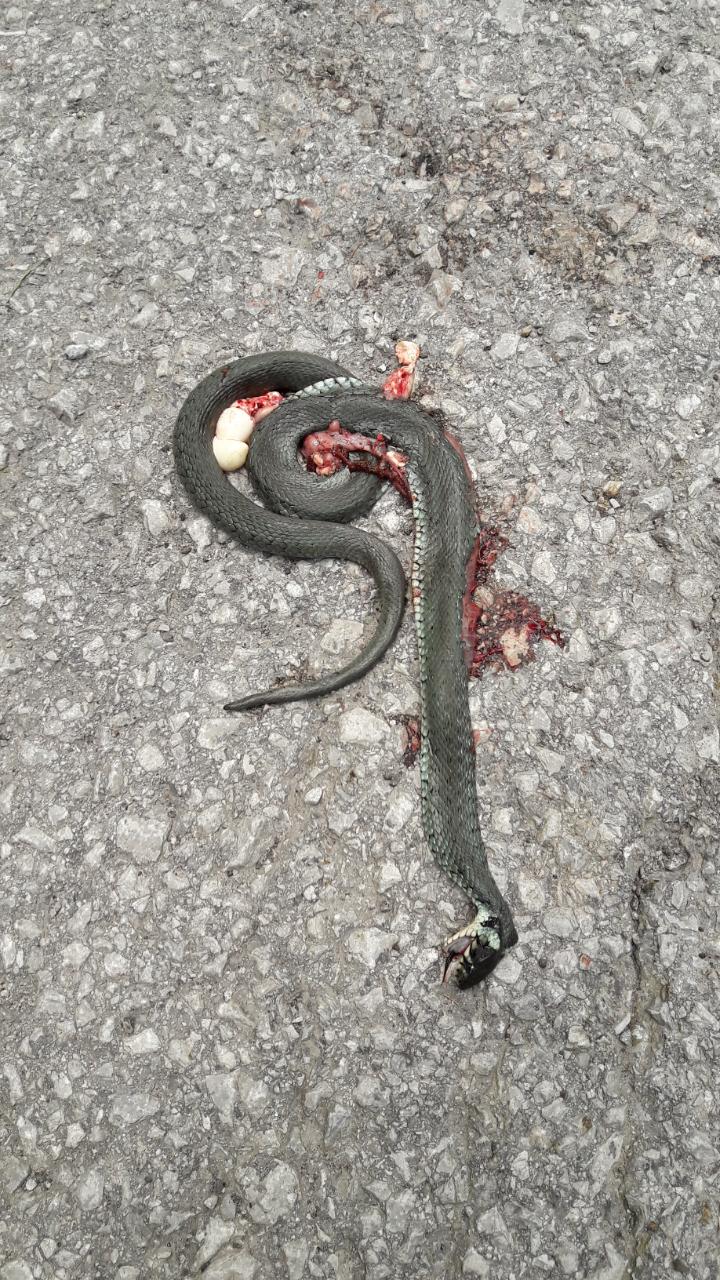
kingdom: Animalia
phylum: Chordata
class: Squamata
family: Colubridae
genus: Natrix
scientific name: Natrix natrix
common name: Grass snake
